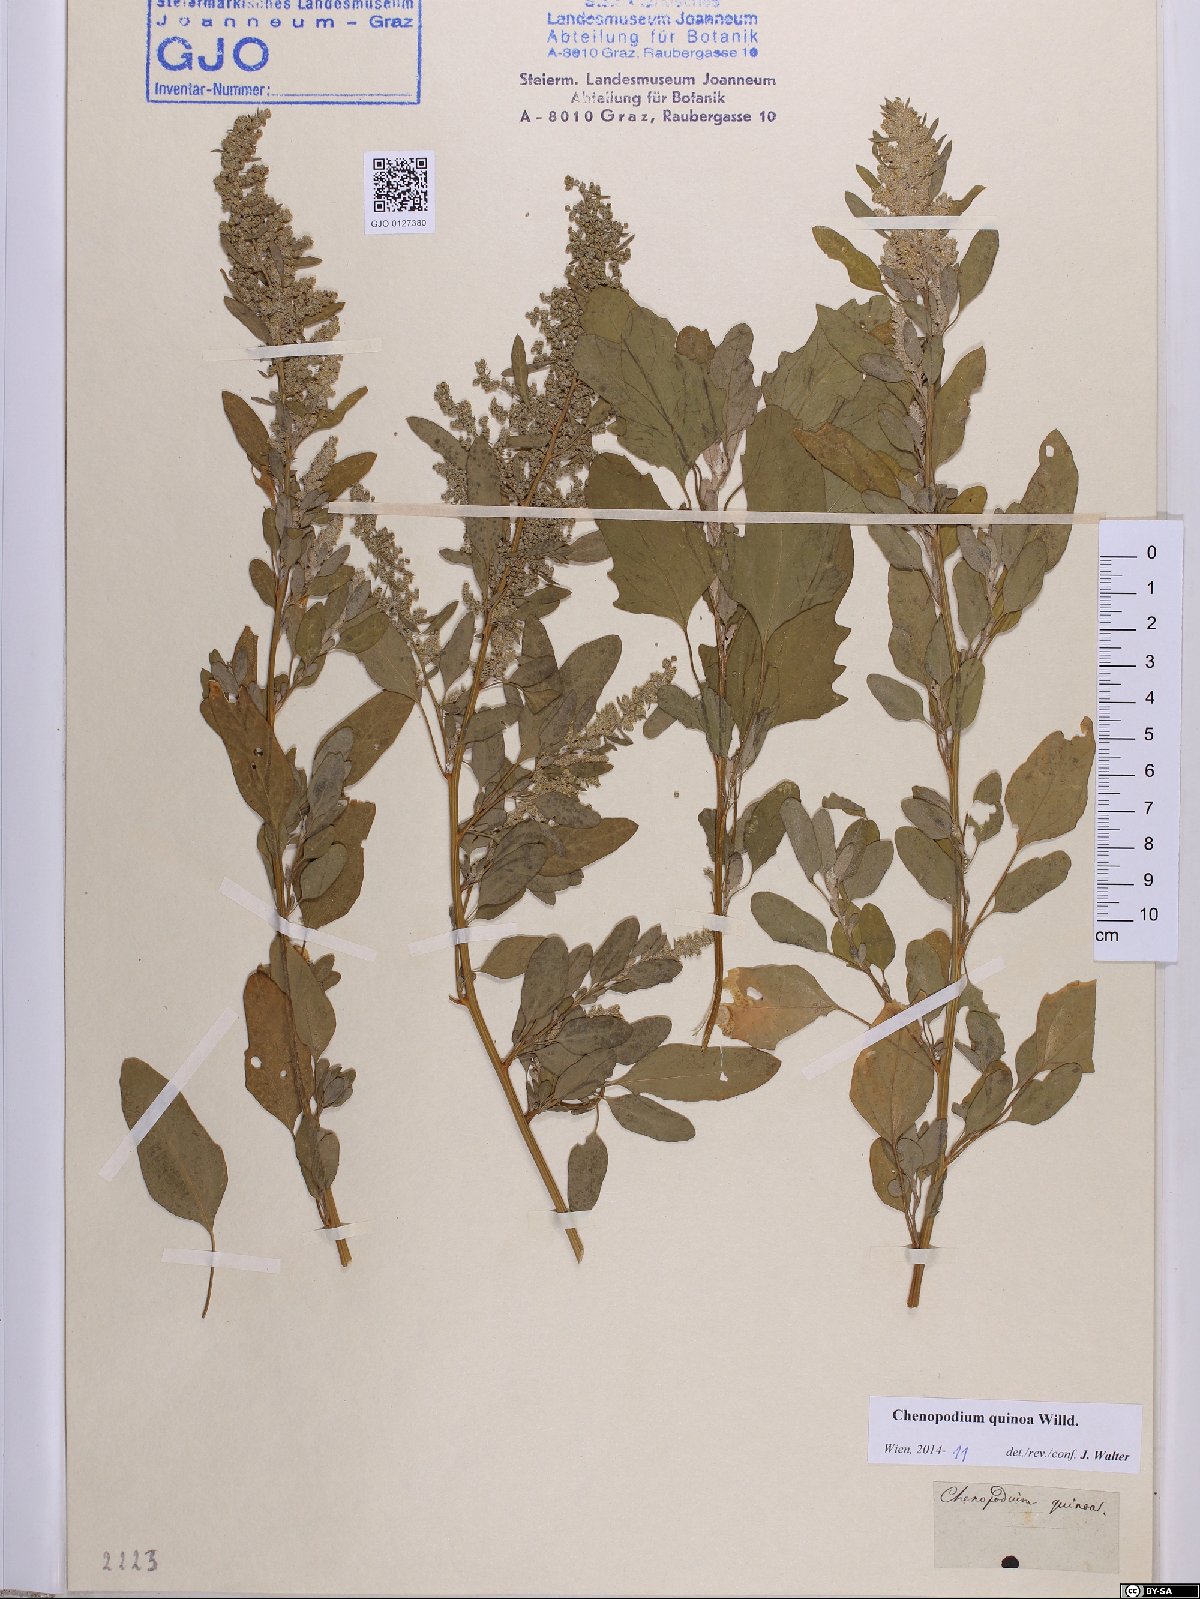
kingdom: Plantae
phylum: Tracheophyta
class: Magnoliopsida
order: Caryophyllales
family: Amaranthaceae
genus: Chenopodium
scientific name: Chenopodium quinoa
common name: Quinoa
